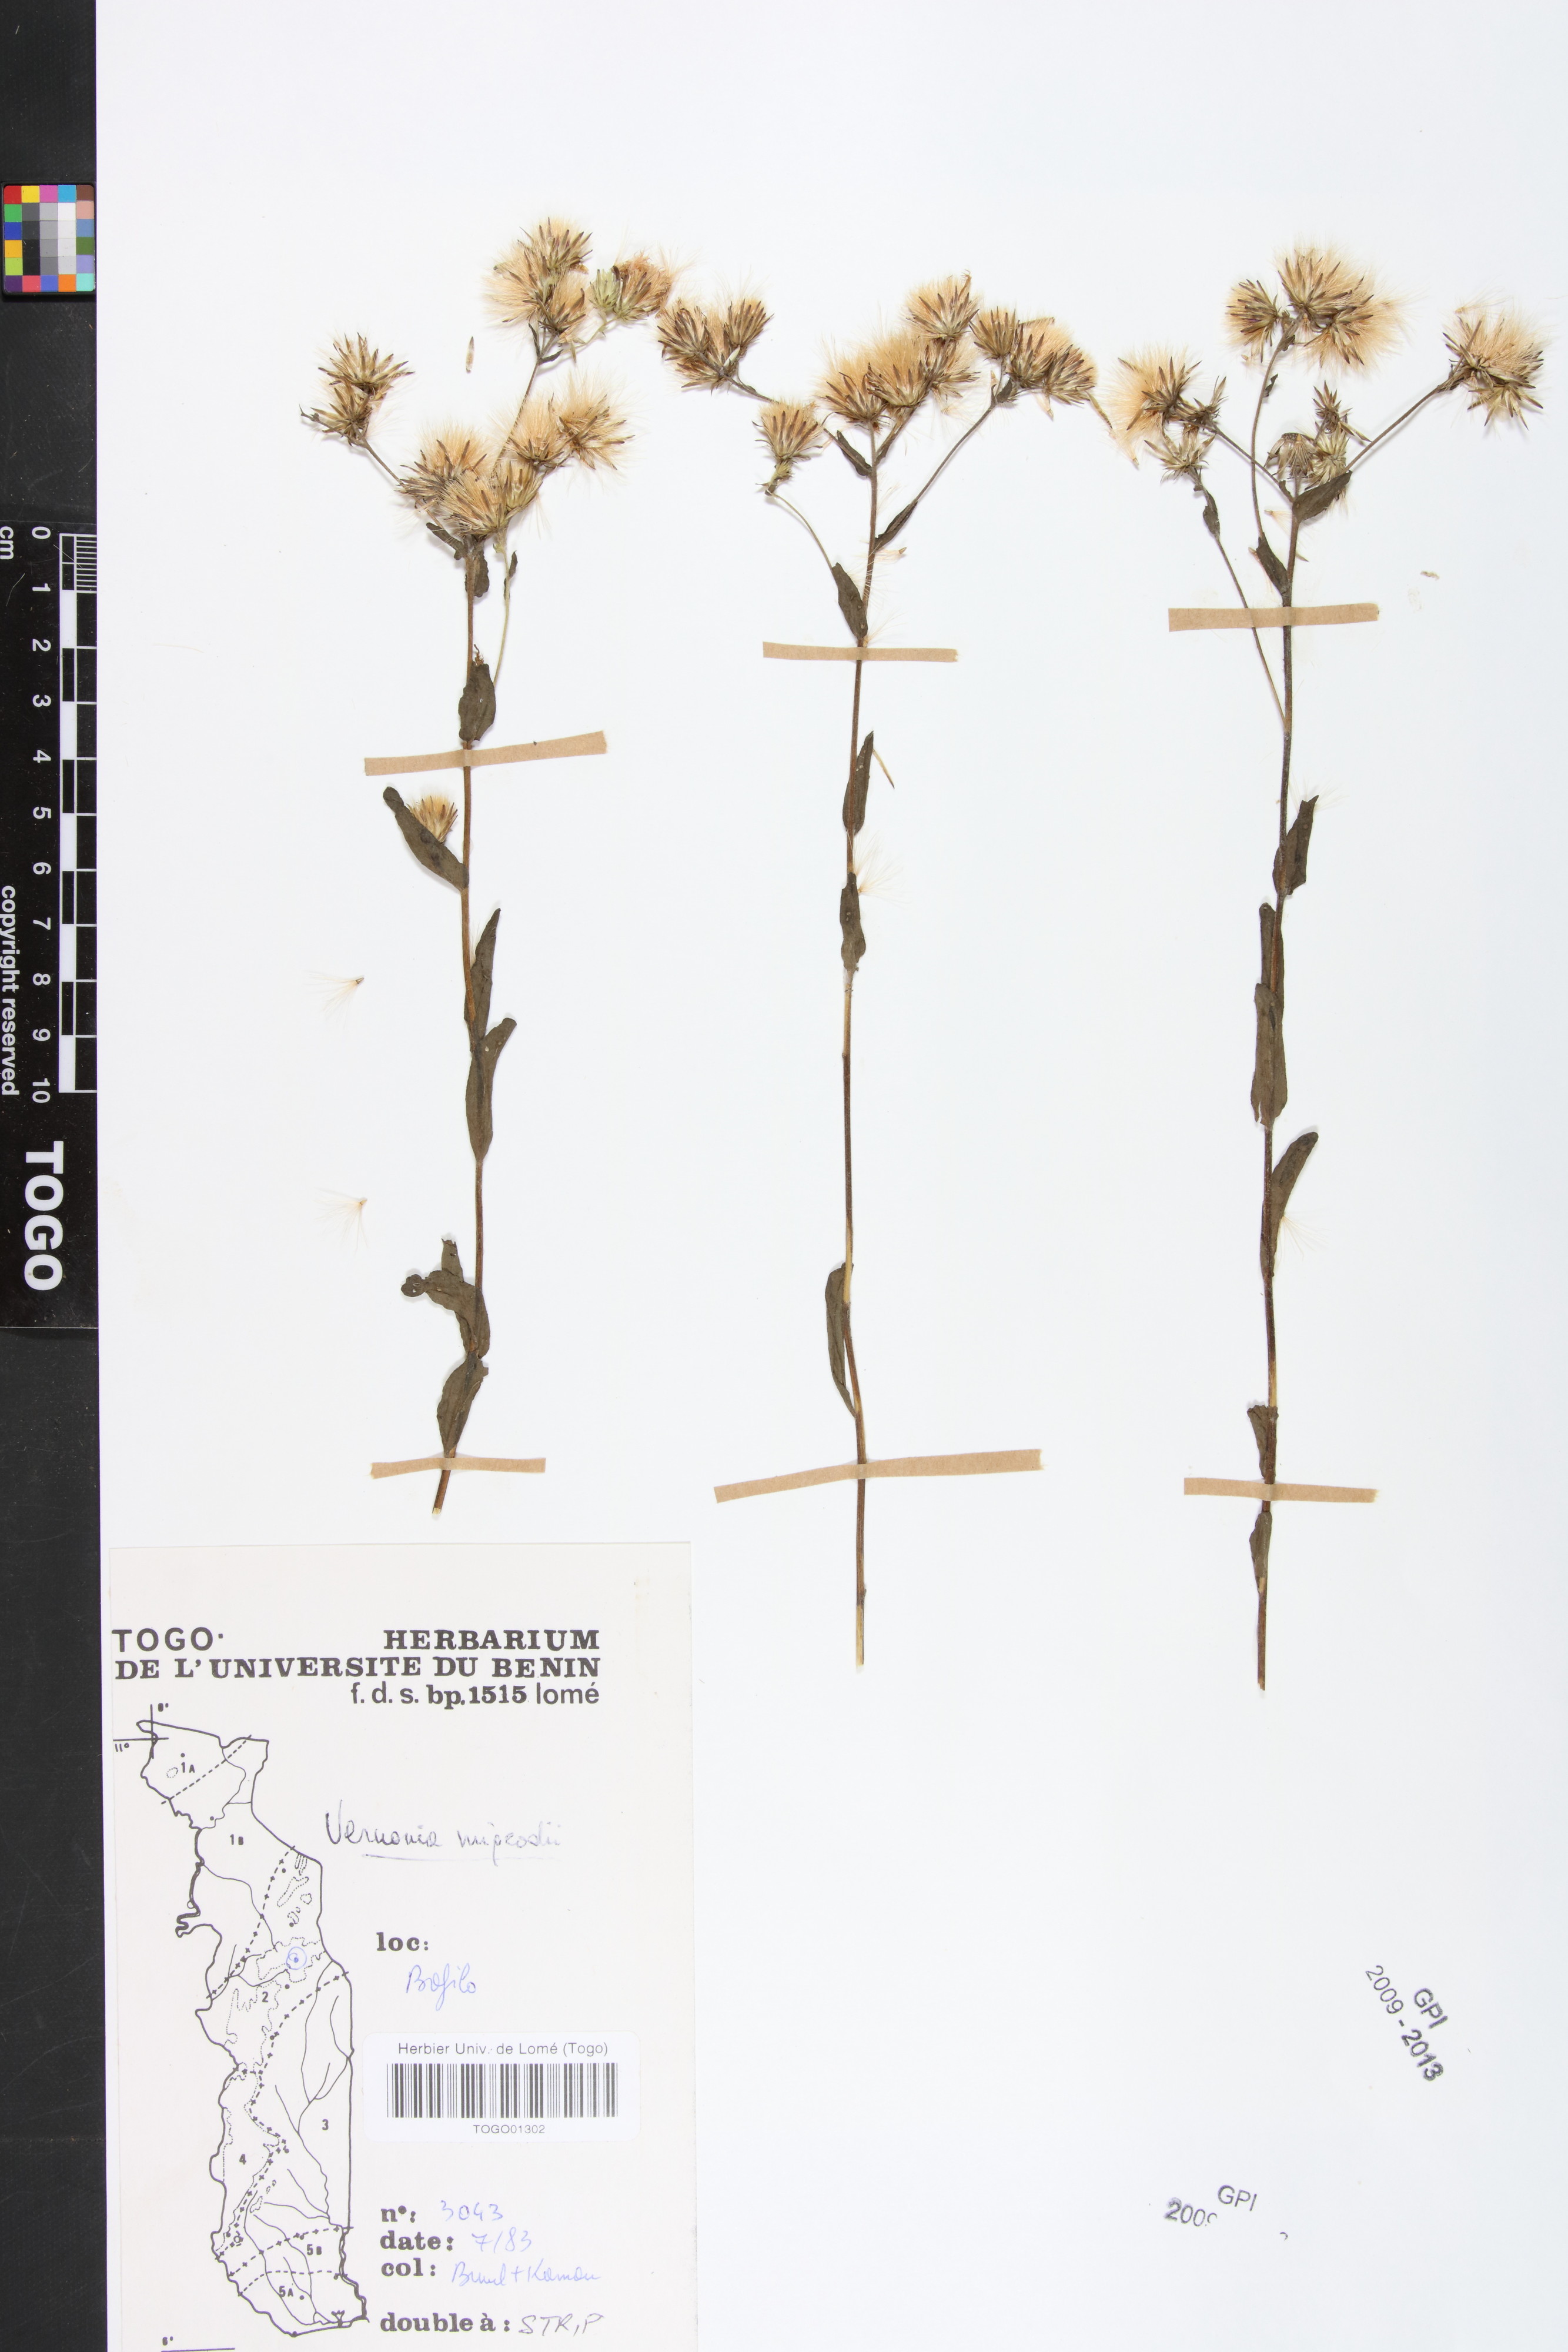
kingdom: Plantae
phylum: Tracheophyta
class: Magnoliopsida
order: Asterales
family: Asteraceae
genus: Vernoniastrum
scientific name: Vernoniastrum migeodii
